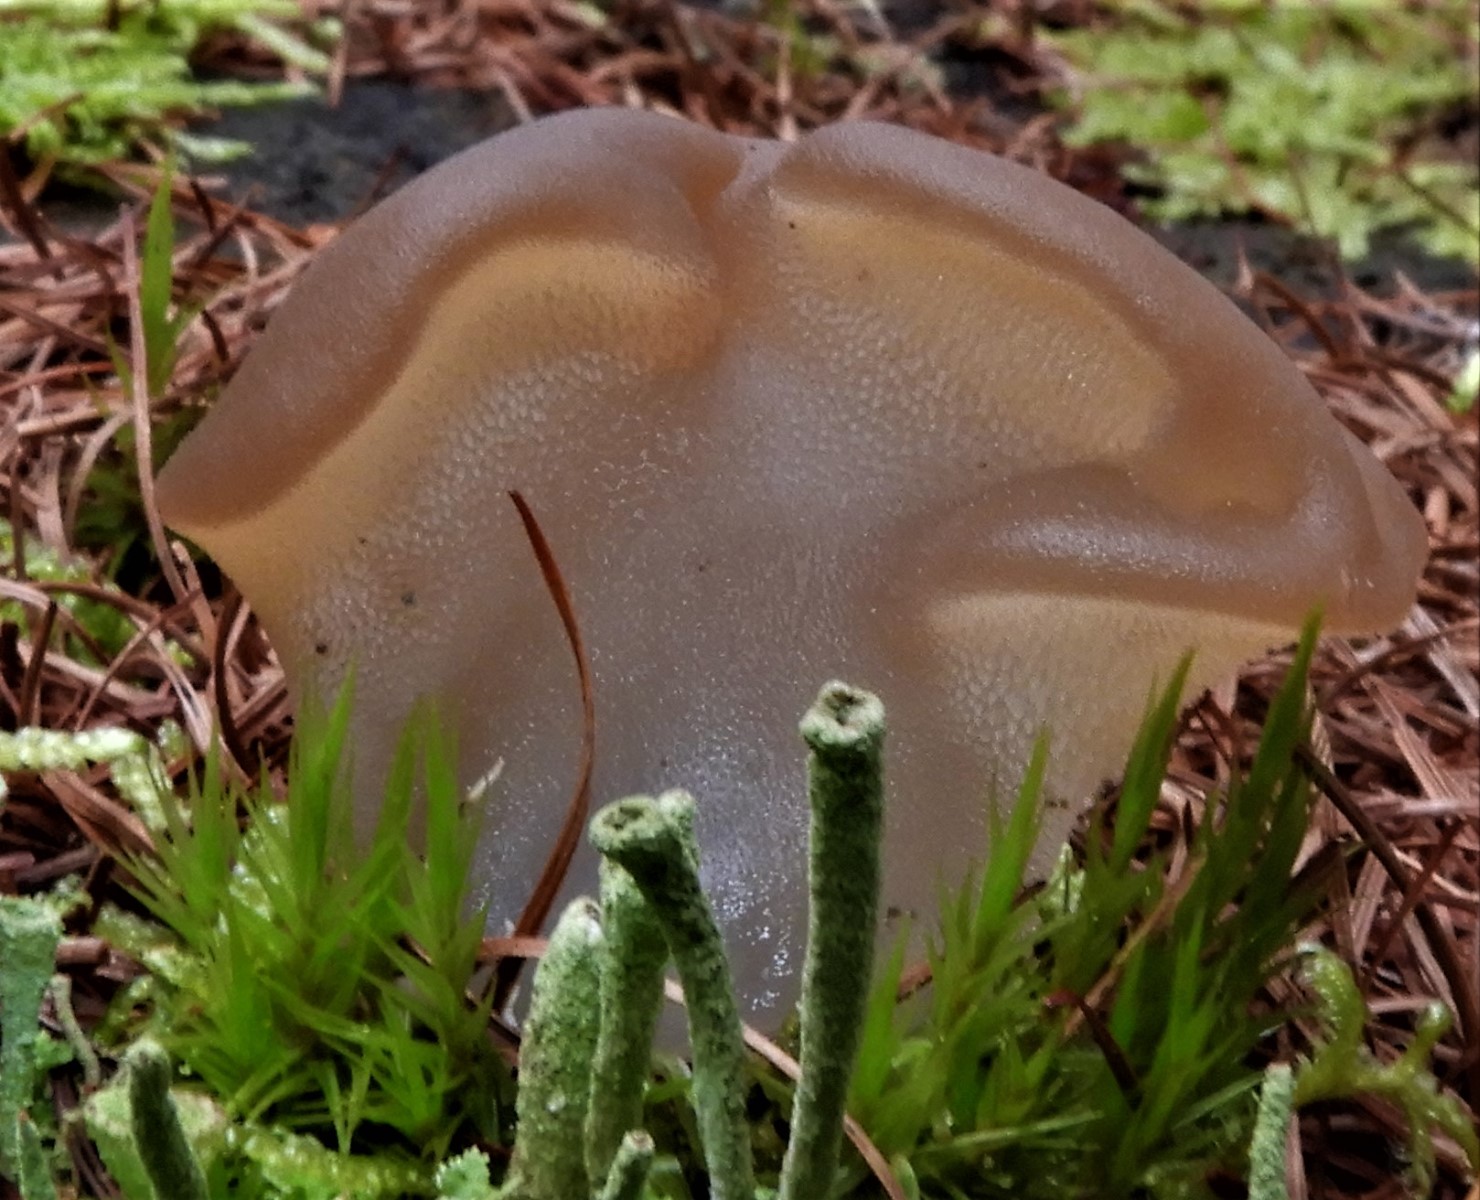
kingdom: Fungi
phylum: Basidiomycota
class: Agaricomycetes
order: Auriculariales
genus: Pseudohydnum
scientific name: Pseudohydnum gelatinosum
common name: bævretand
